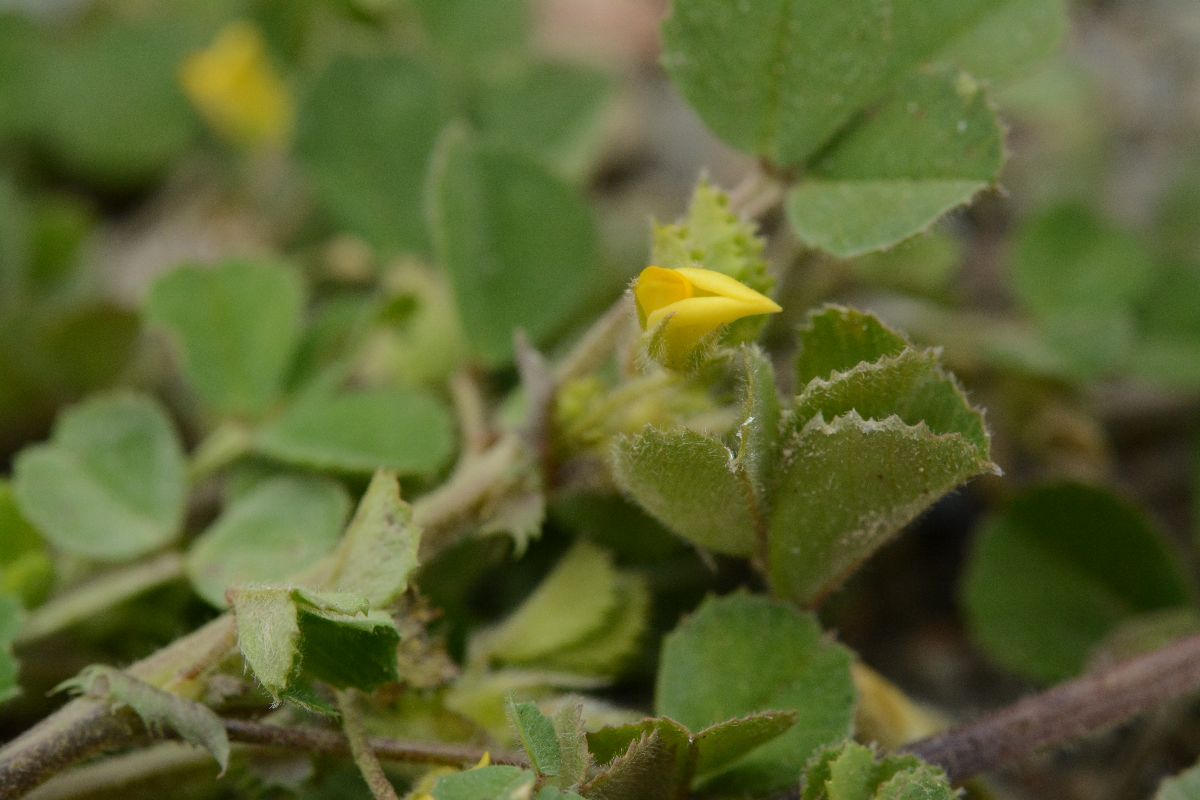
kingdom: Plantae
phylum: Tracheophyta
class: Magnoliopsida
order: Fabales
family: Fabaceae
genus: Medicago
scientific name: Medicago praecox
